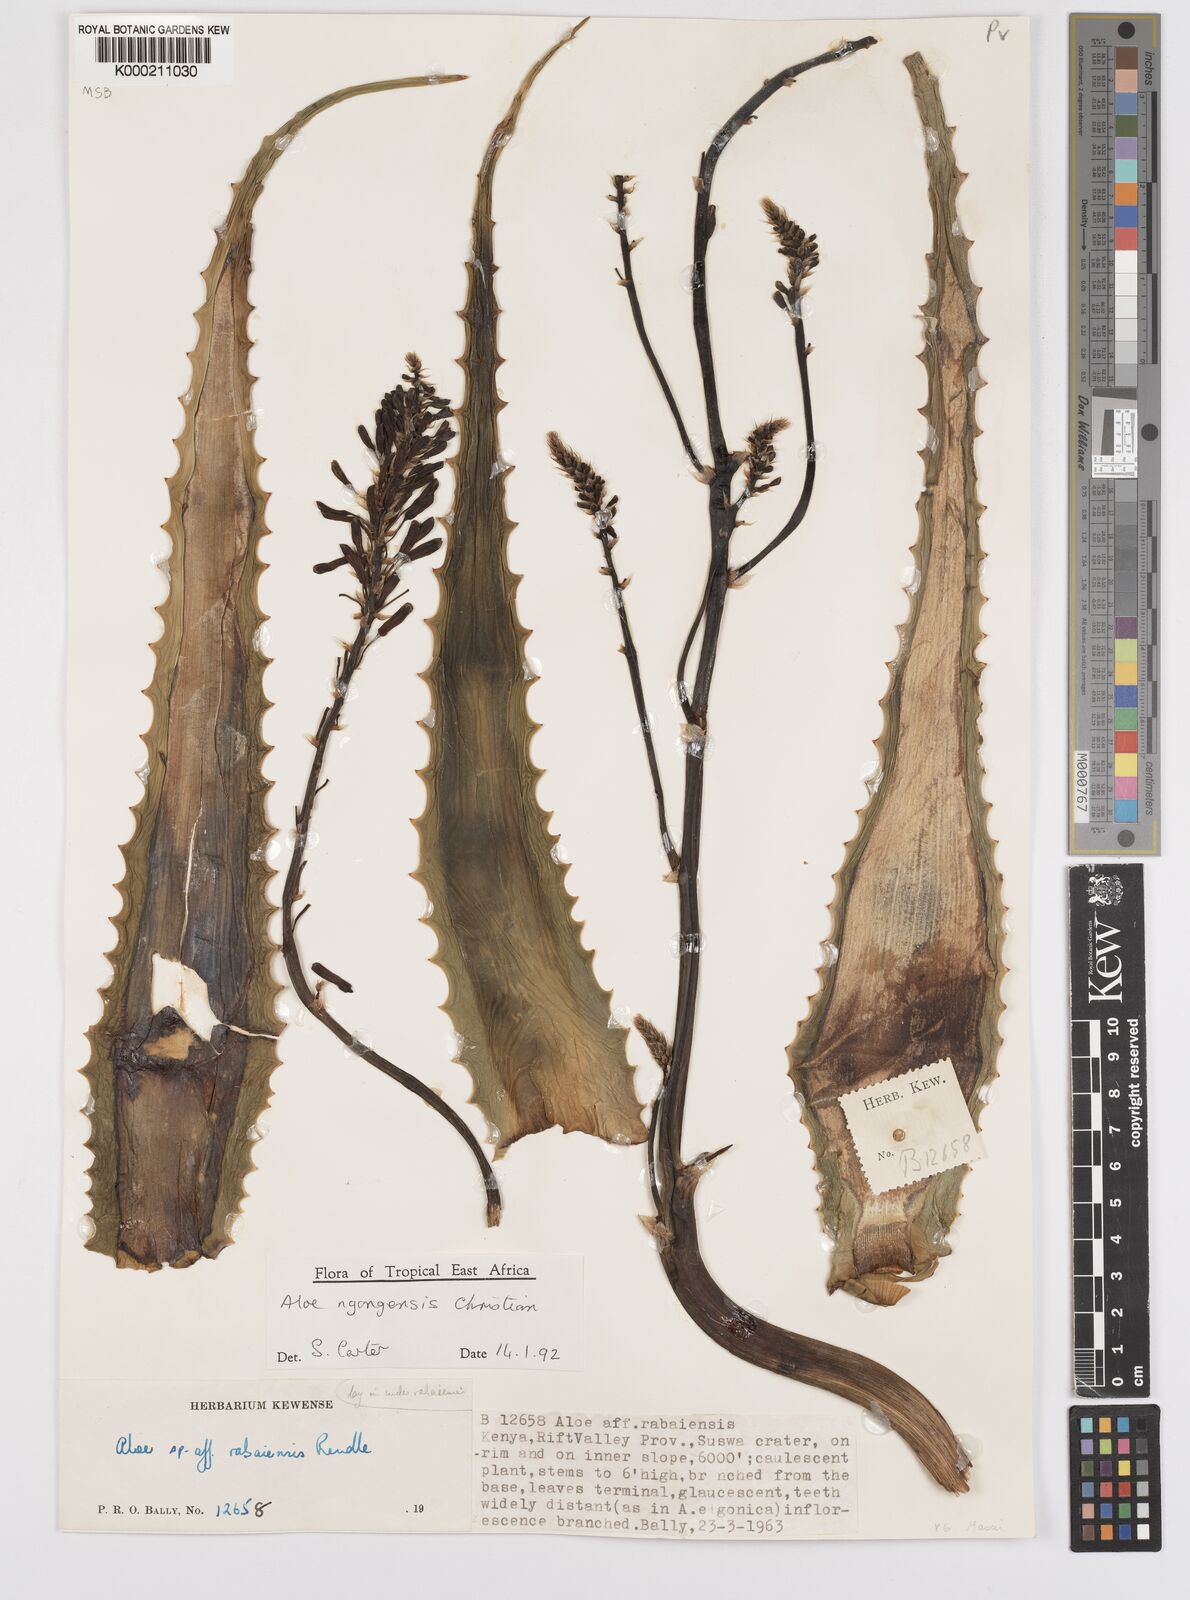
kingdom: Plantae
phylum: Tracheophyta
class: Liliopsida
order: Asparagales
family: Asphodelaceae
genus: Aloe
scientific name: Aloe ngongensis
